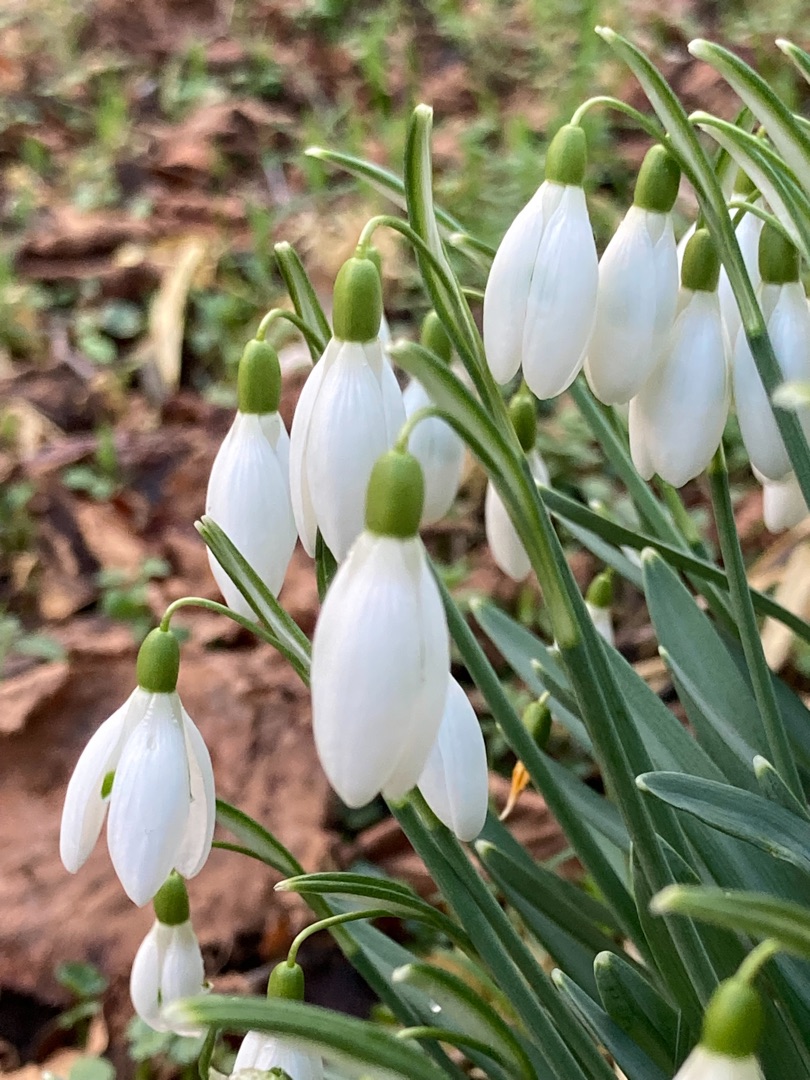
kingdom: Plantae
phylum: Tracheophyta
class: Liliopsida
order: Asparagales
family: Amaryllidaceae
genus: Galanthus
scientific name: Galanthus nivalis
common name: Vintergæk
